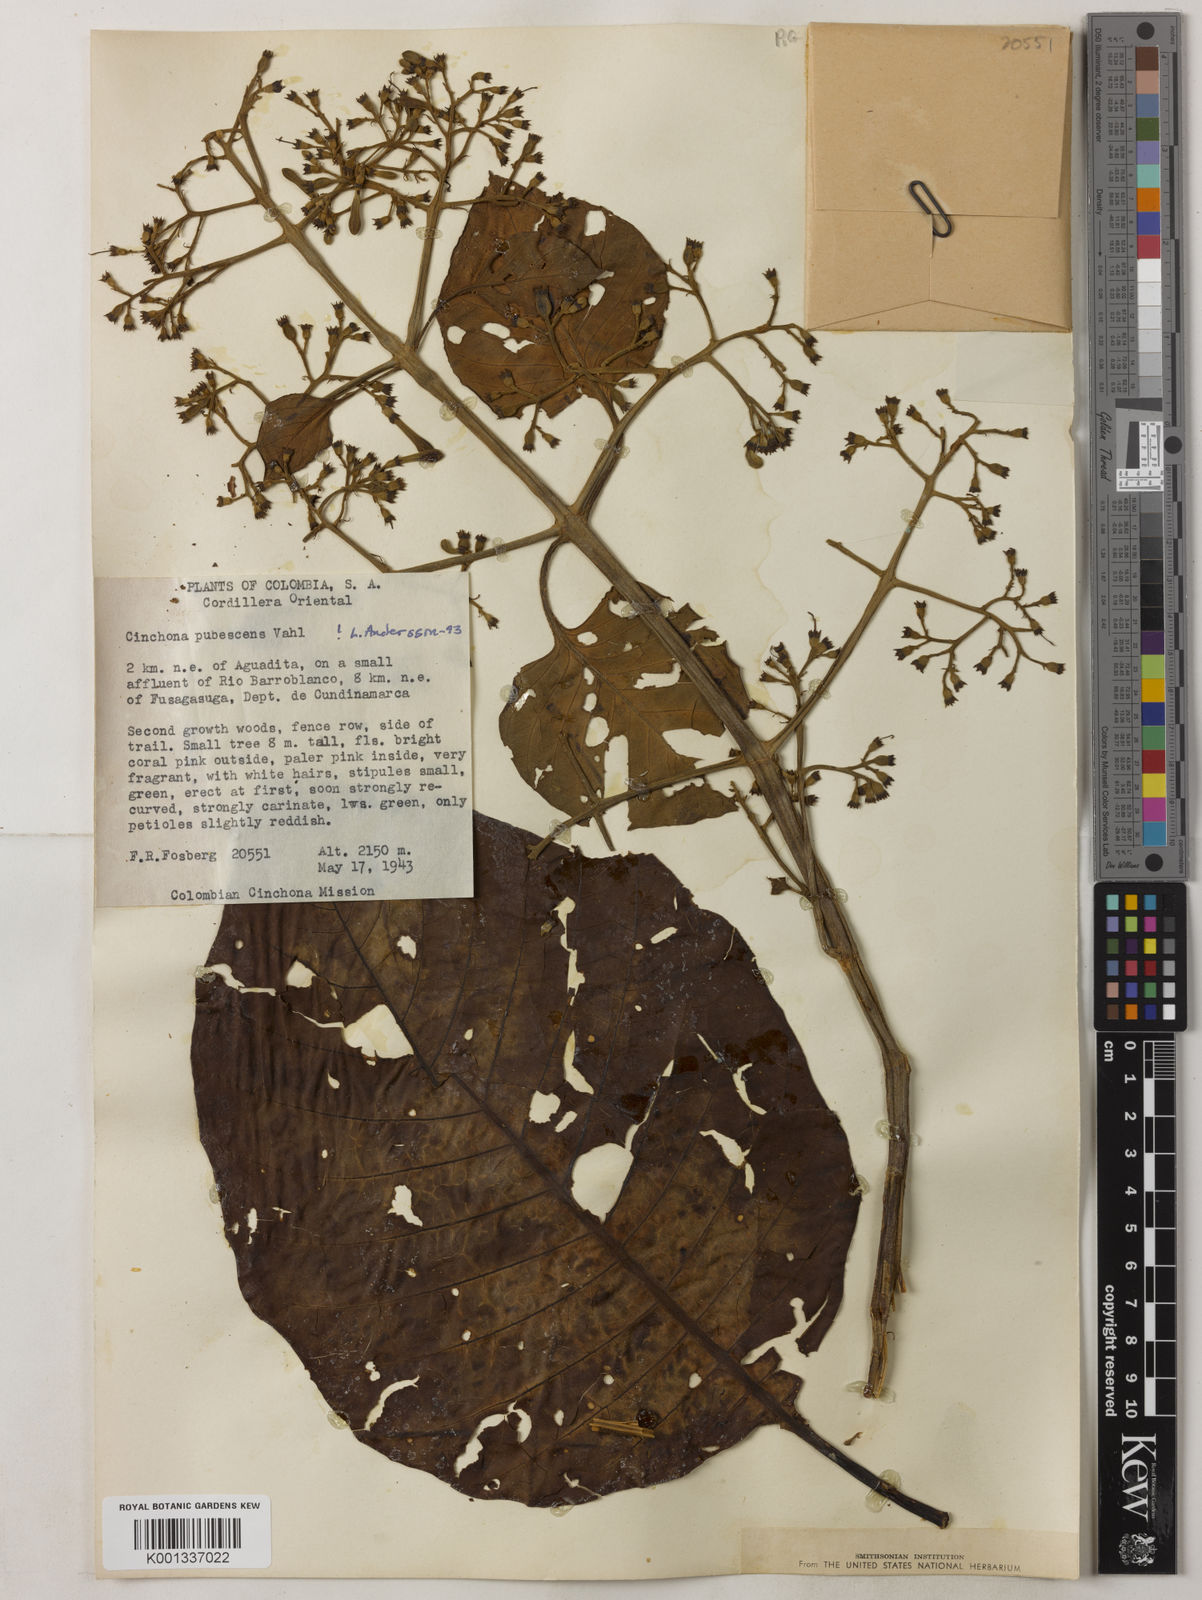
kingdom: Plantae
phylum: Tracheophyta
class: Magnoliopsida
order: Gentianales
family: Rubiaceae
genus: Cinchona
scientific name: Cinchona pubescens
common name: Quinine
